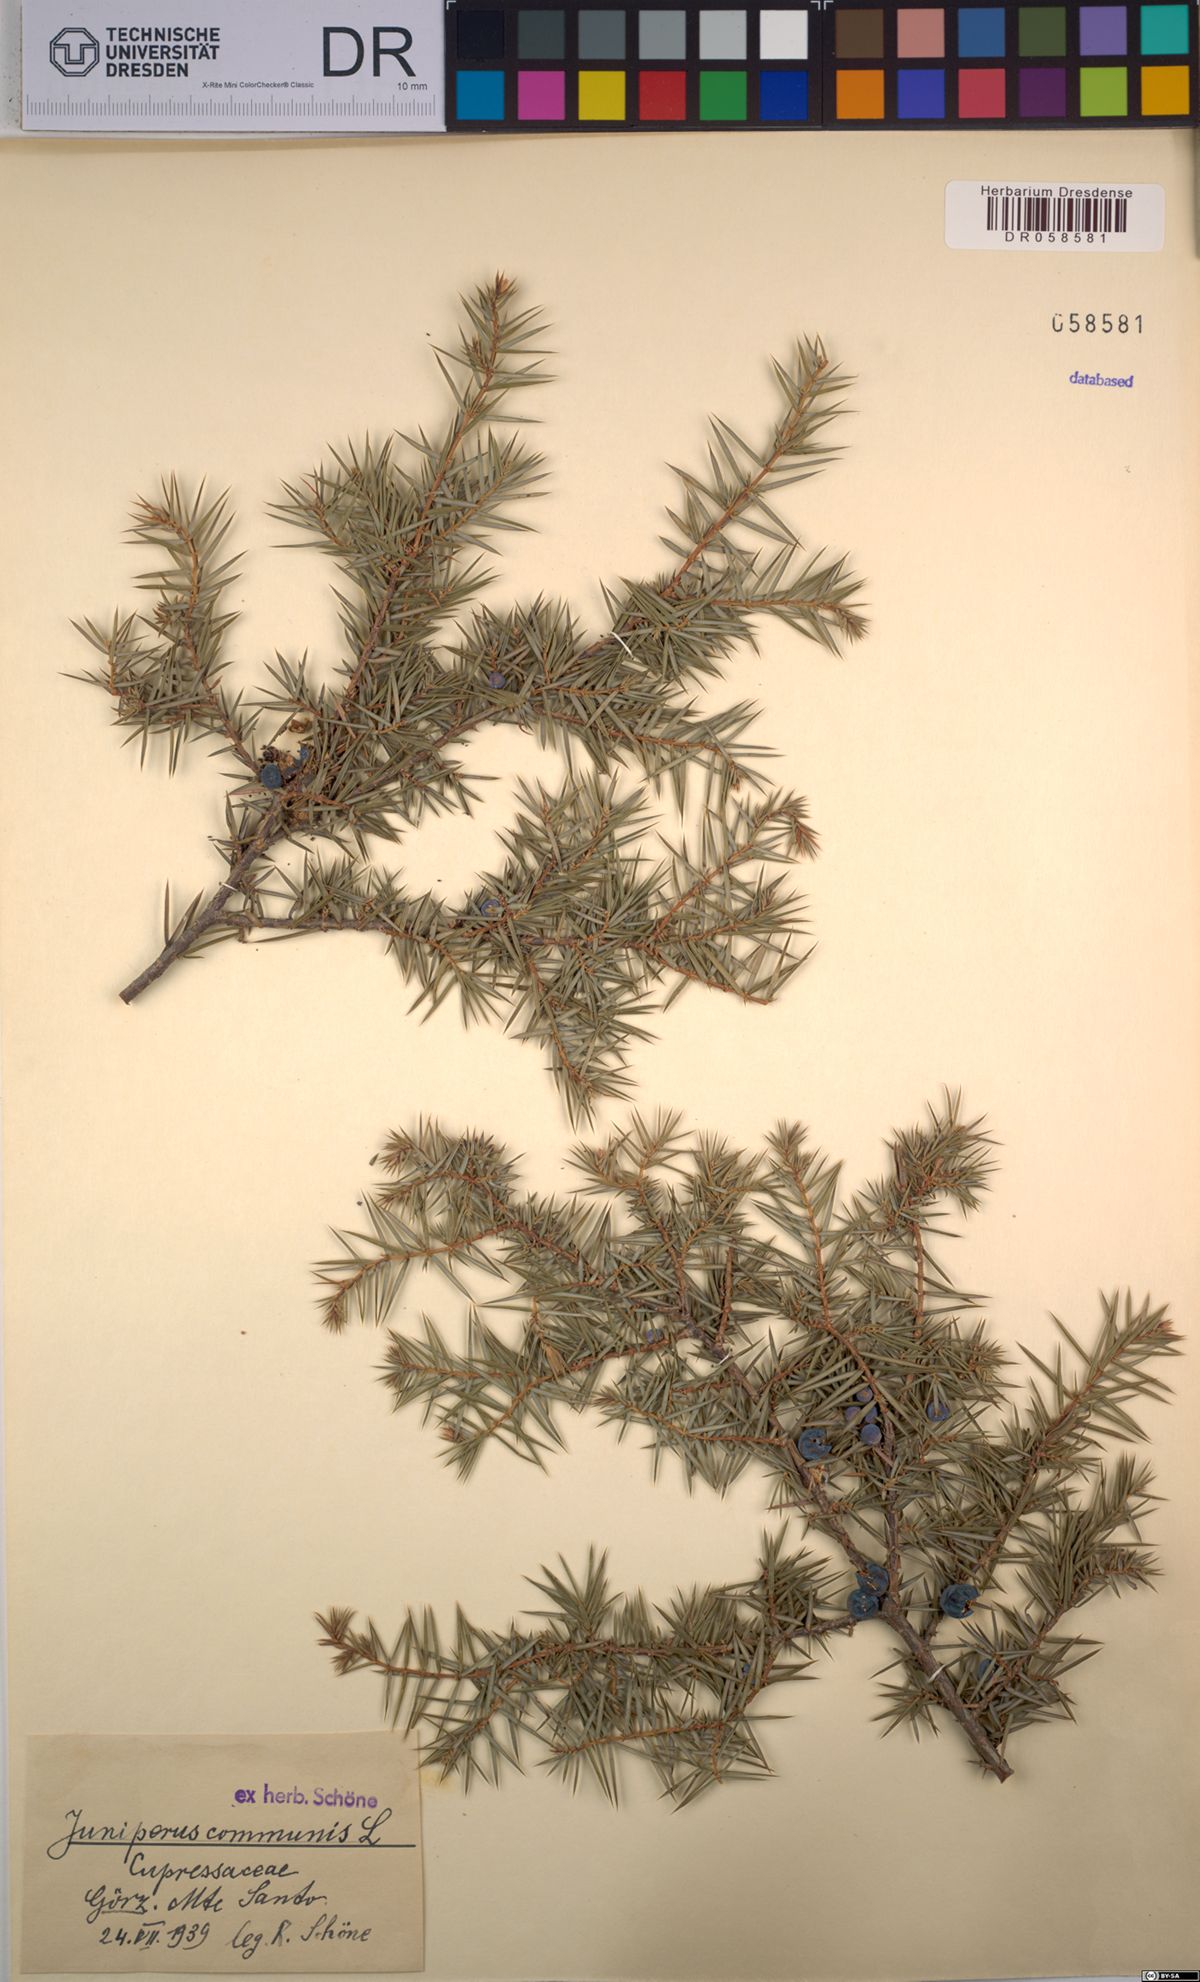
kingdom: Plantae
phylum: Tracheophyta
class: Pinopsida
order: Pinales
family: Cupressaceae
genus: Juniperus
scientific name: Juniperus communis
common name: Common juniper
